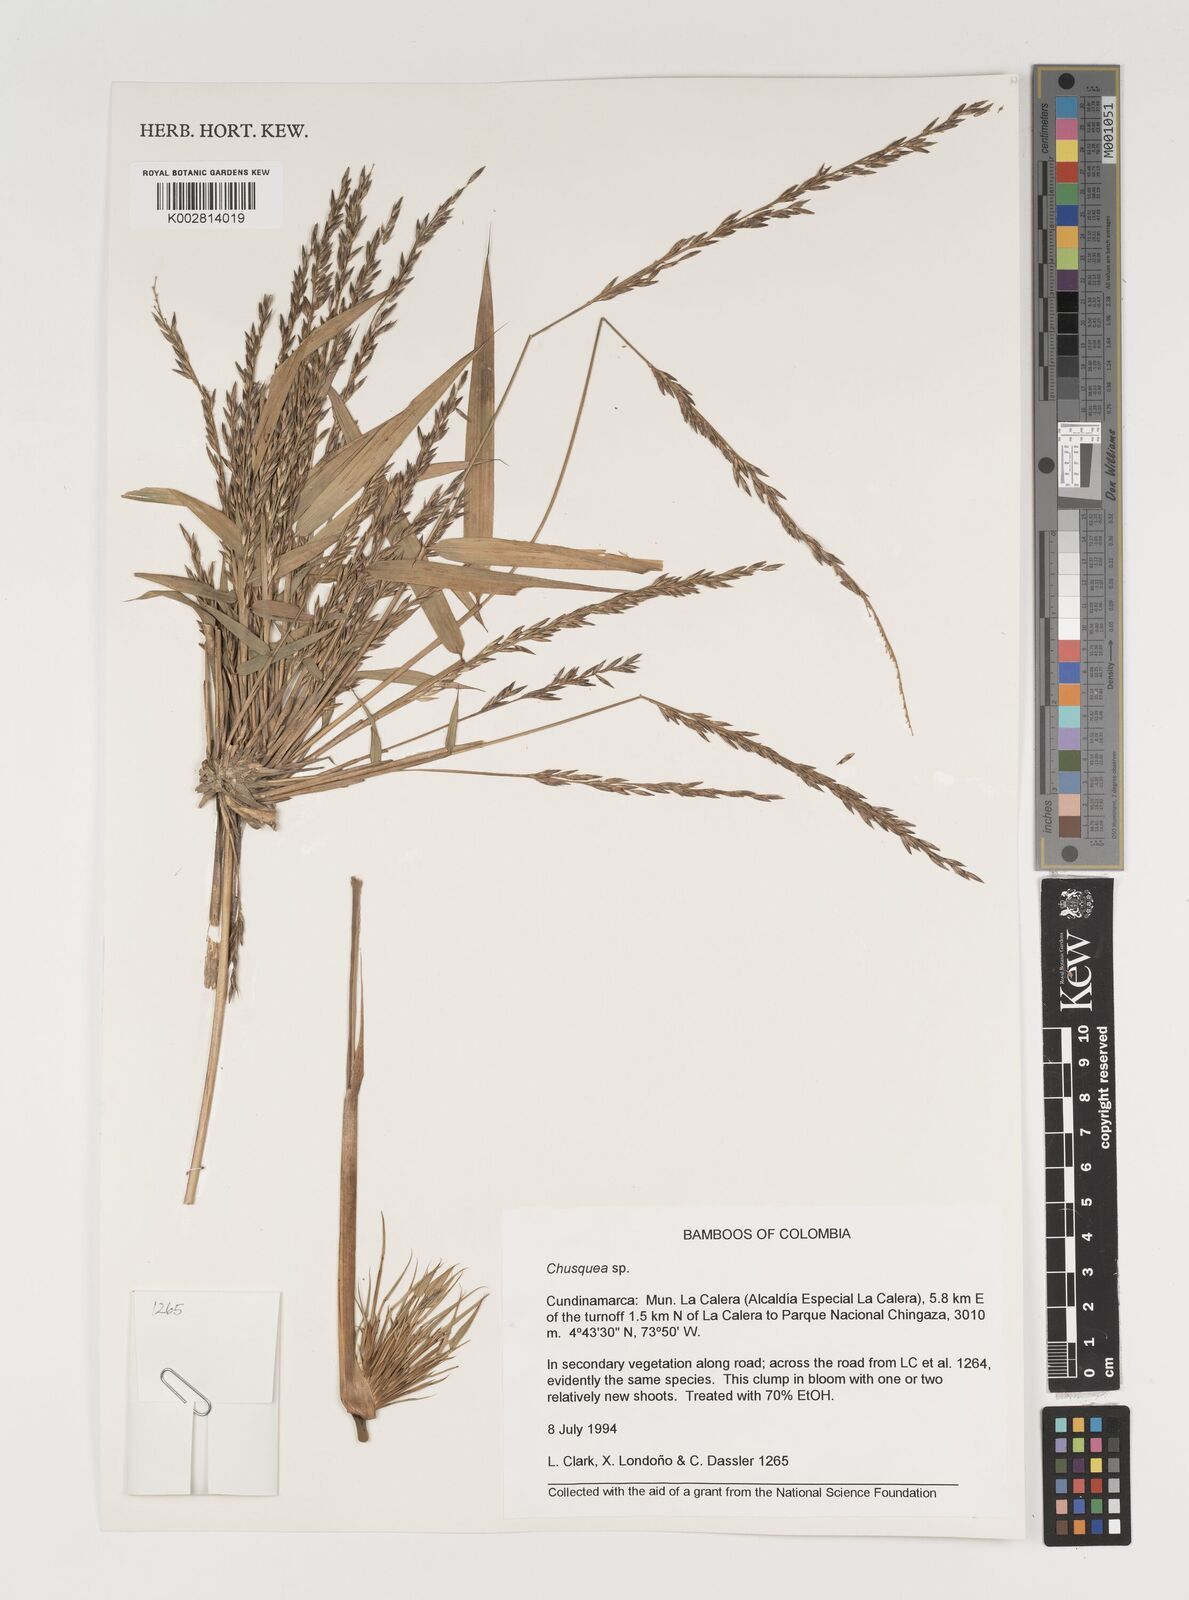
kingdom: Plantae
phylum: Tracheophyta
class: Liliopsida
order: Poales
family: Poaceae
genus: Chusquea
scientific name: Chusquea
